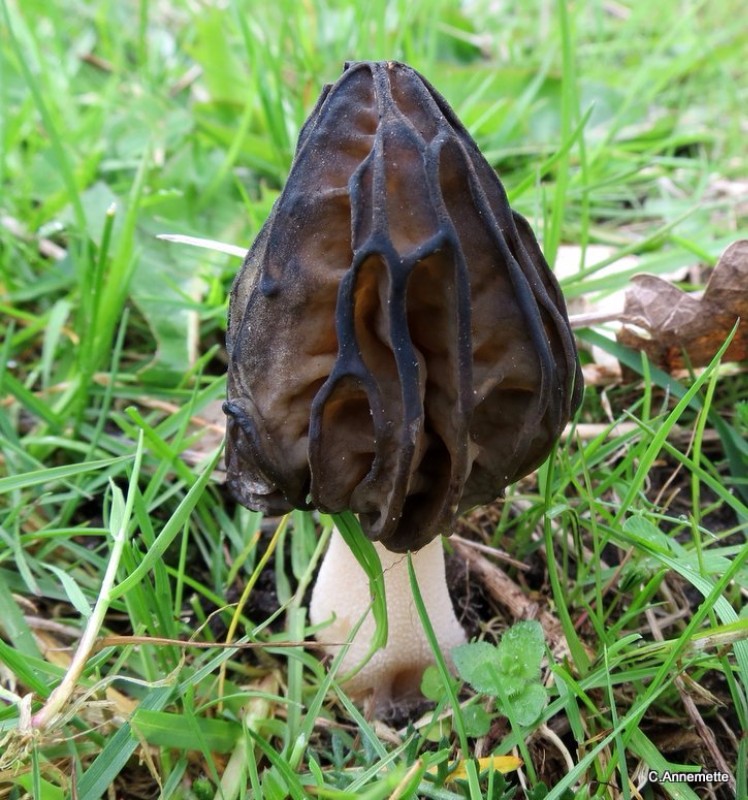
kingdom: Fungi
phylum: Ascomycota
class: Pezizomycetes
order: Pezizales
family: Morchellaceae
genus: Morchella
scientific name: Morchella semilibera
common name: hætte-morkel
